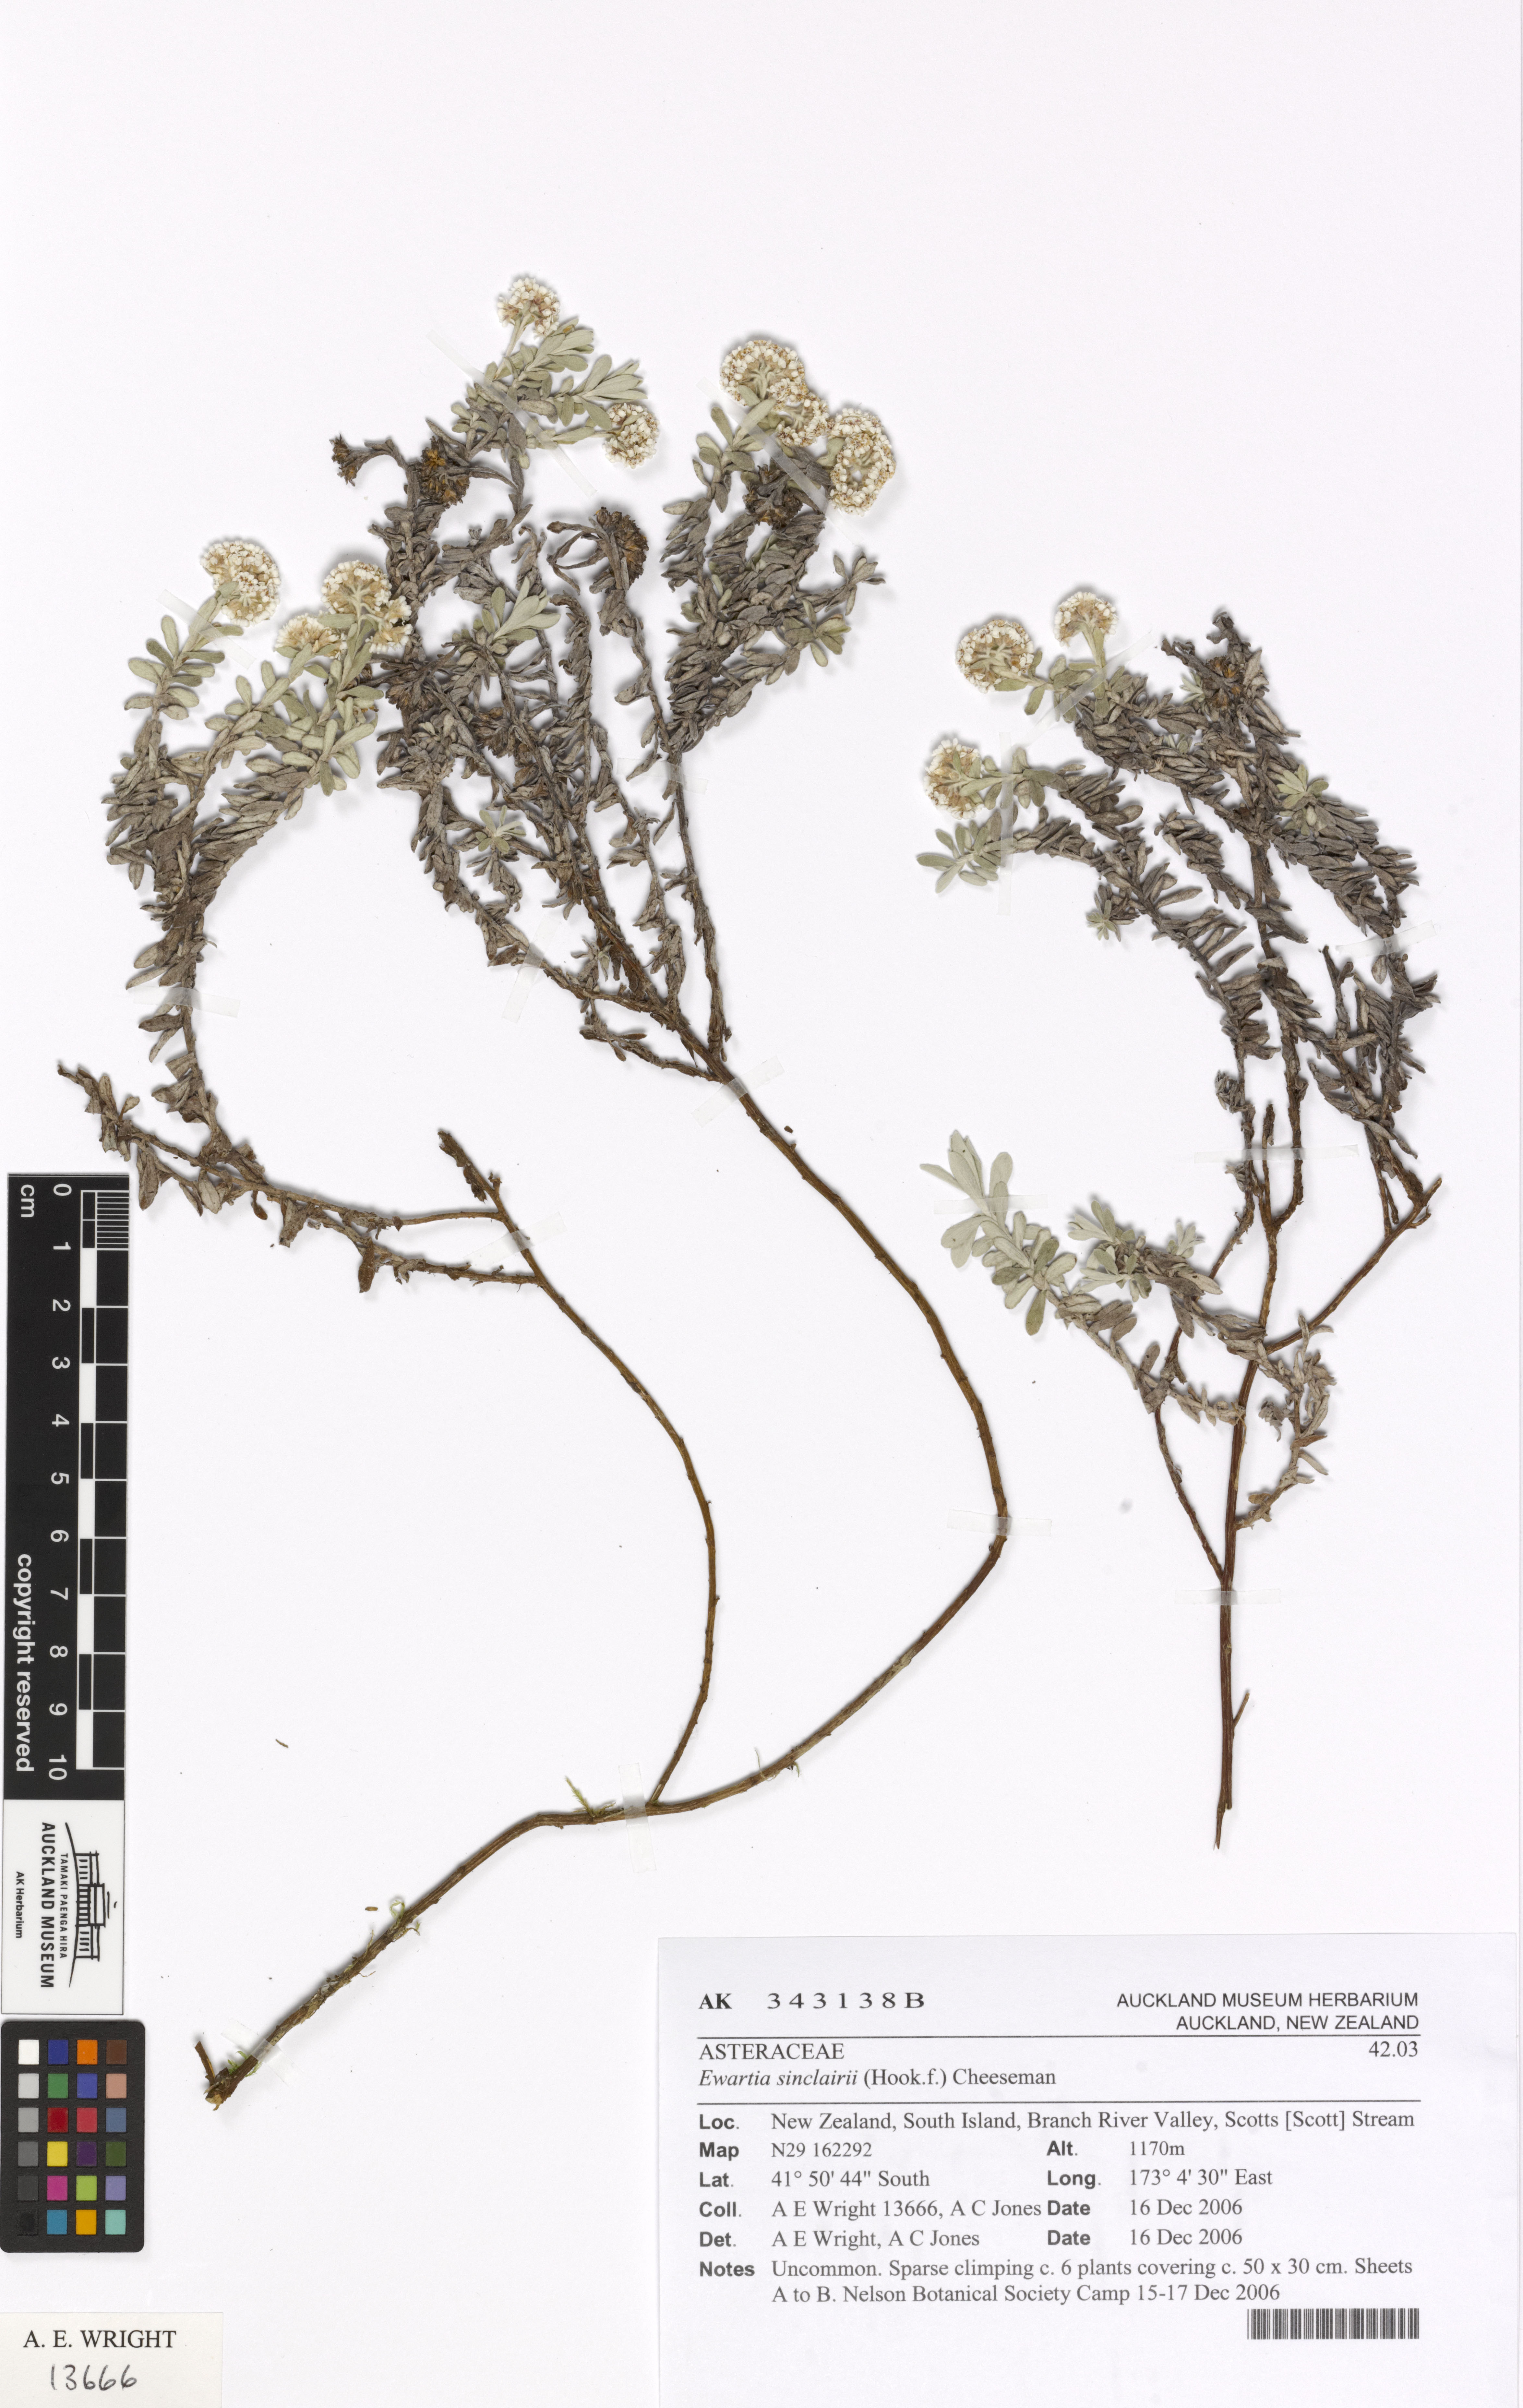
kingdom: Plantae
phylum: Tracheophyta
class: Magnoliopsida
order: Asterales
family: Asteraceae
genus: Ewartiothamnus
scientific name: Ewartiothamnus sinclairii
